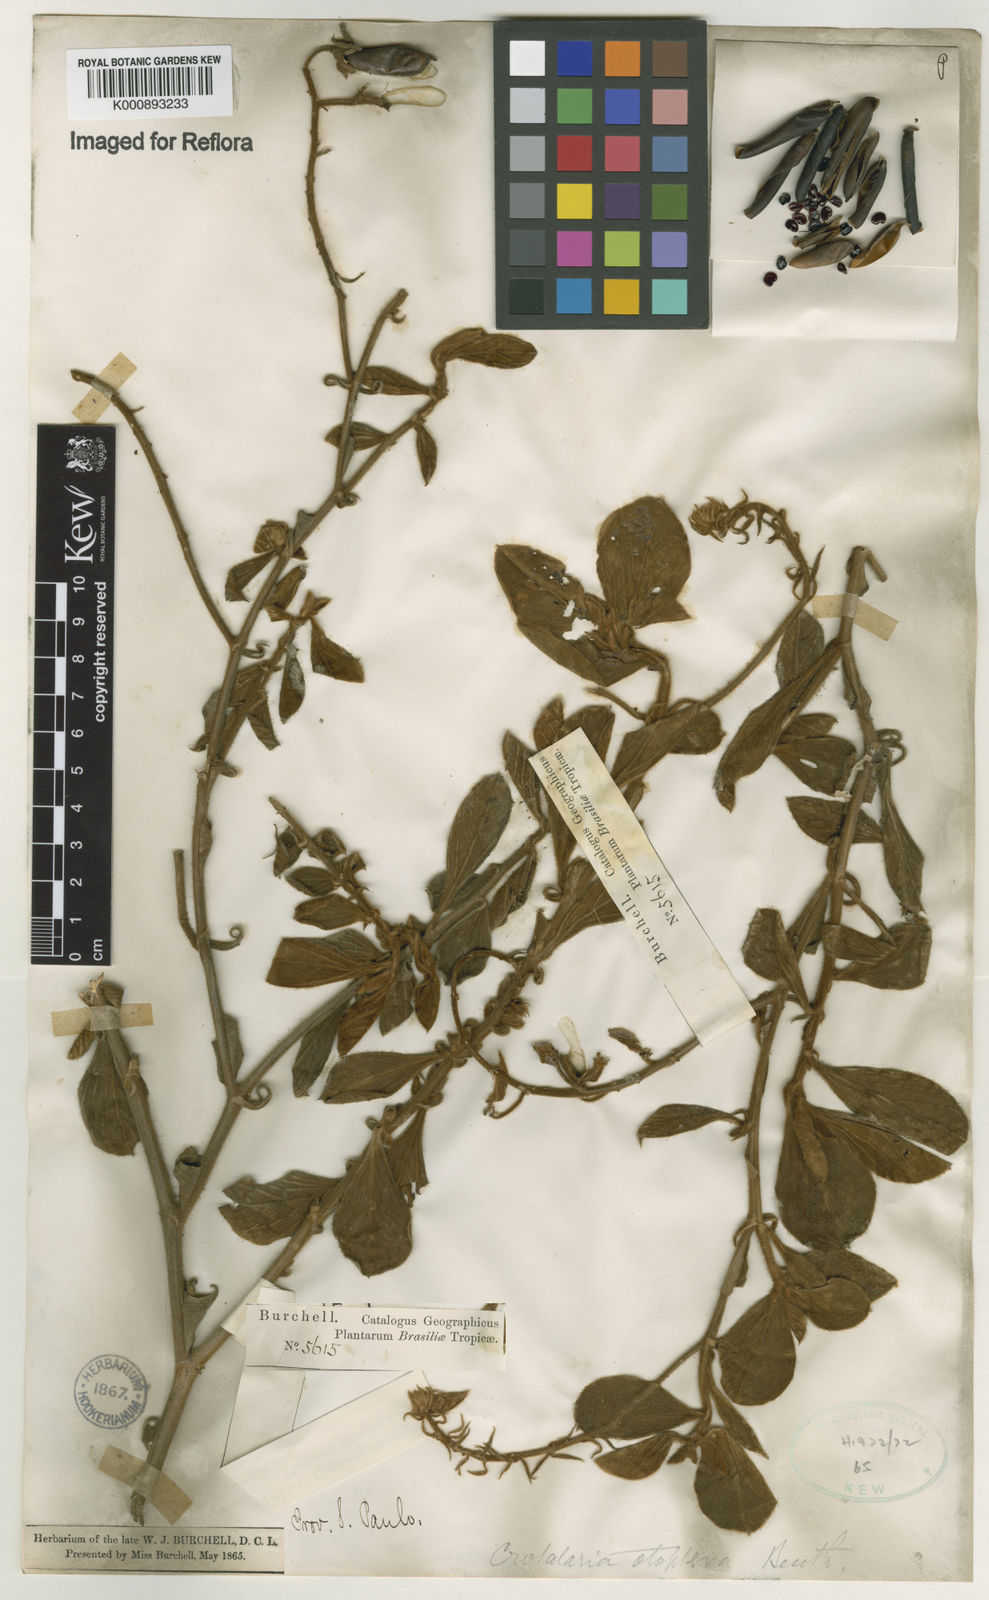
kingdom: Plantae
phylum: Tracheophyta
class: Magnoliopsida
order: Fabales
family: Fabaceae
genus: Crotalaria
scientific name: Crotalaria otoptera
